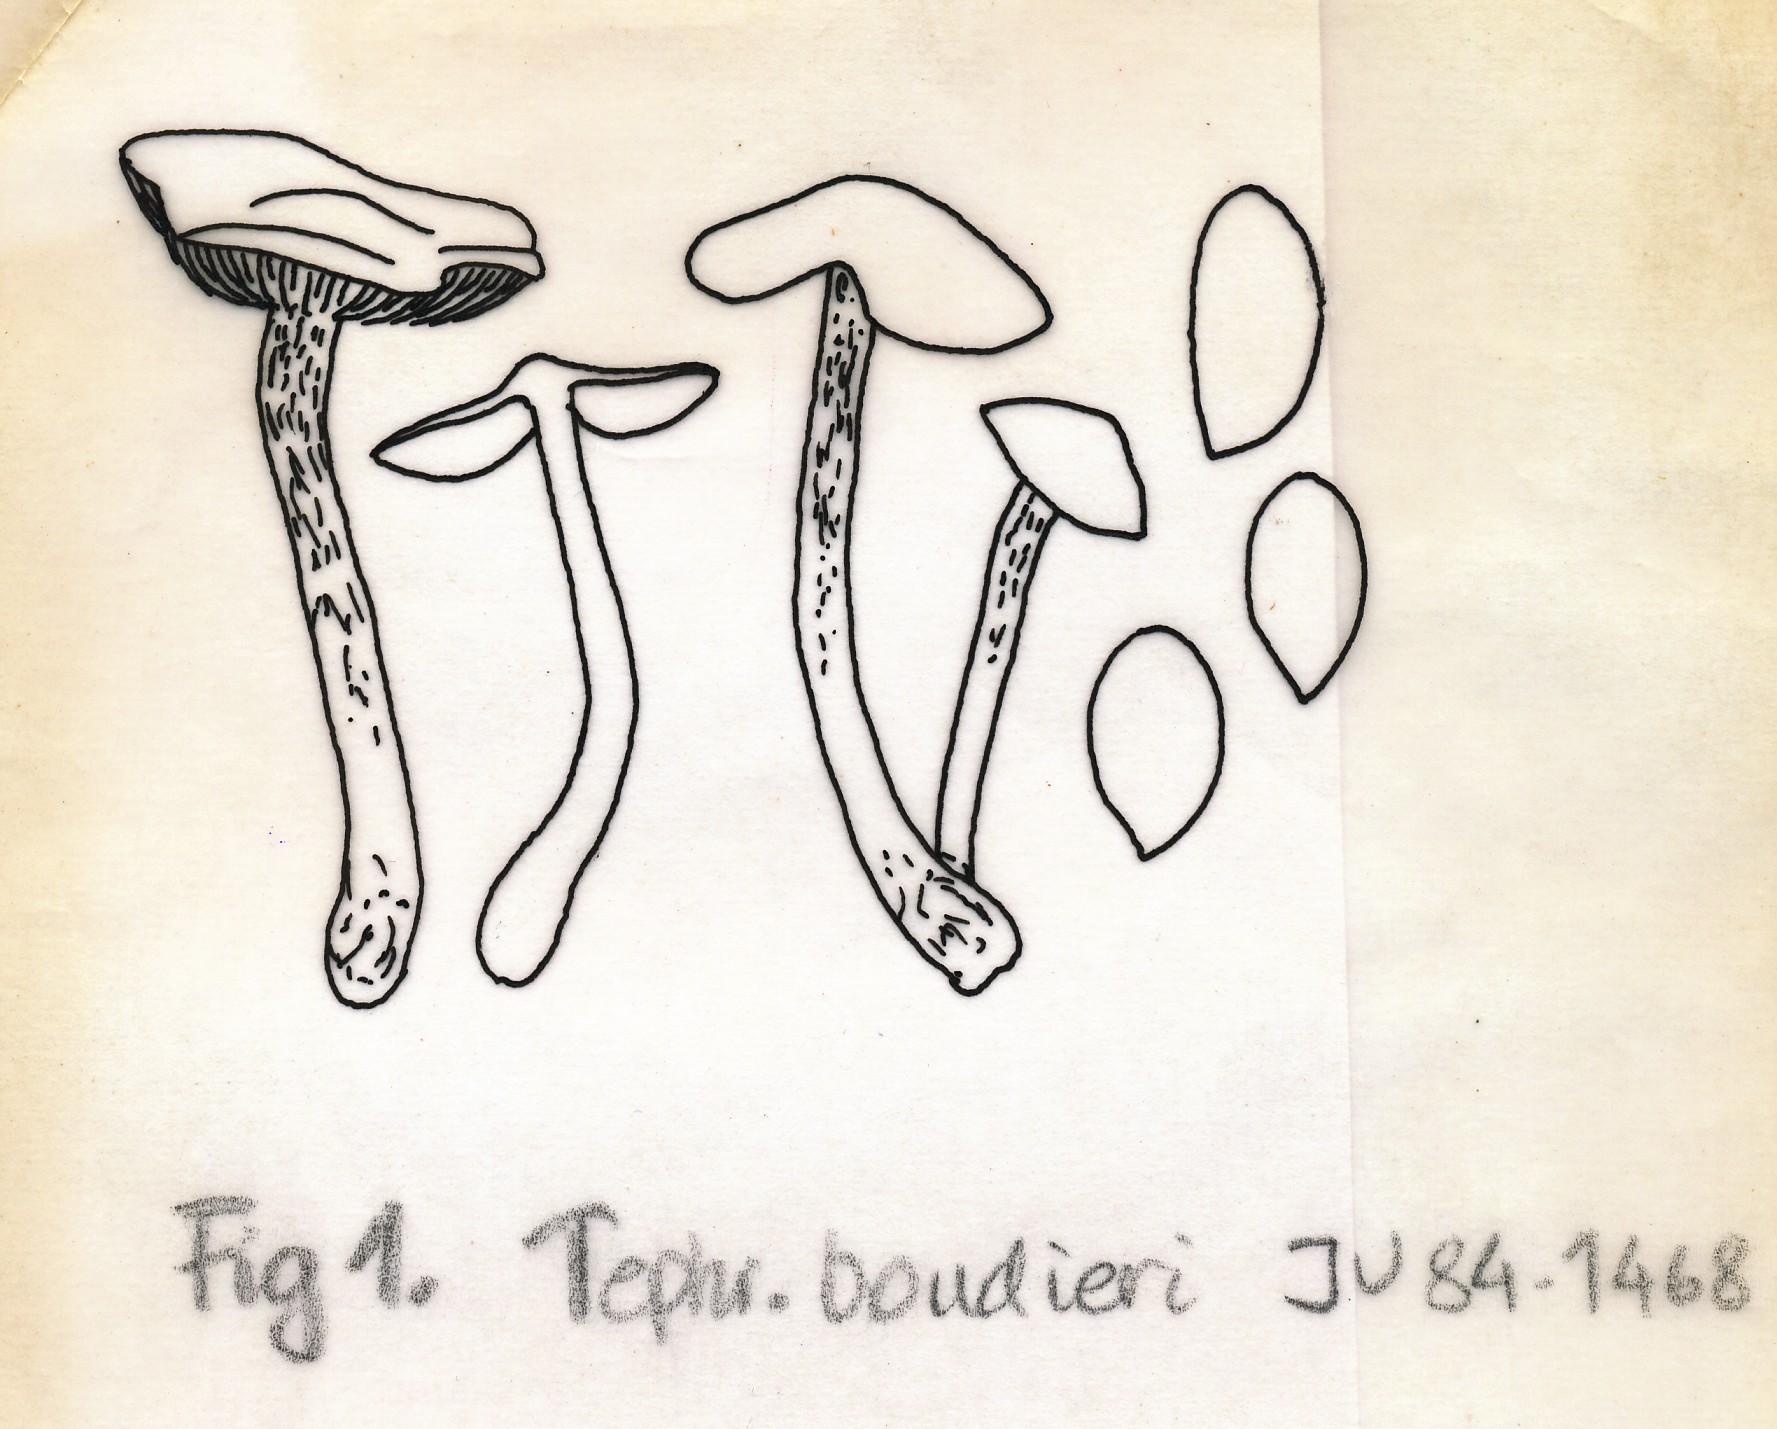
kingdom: Fungi
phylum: Basidiomycota
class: Agaricomycetes
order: Agaricales
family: Lyophyllaceae
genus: Myochromella
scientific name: Myochromella boudieri
